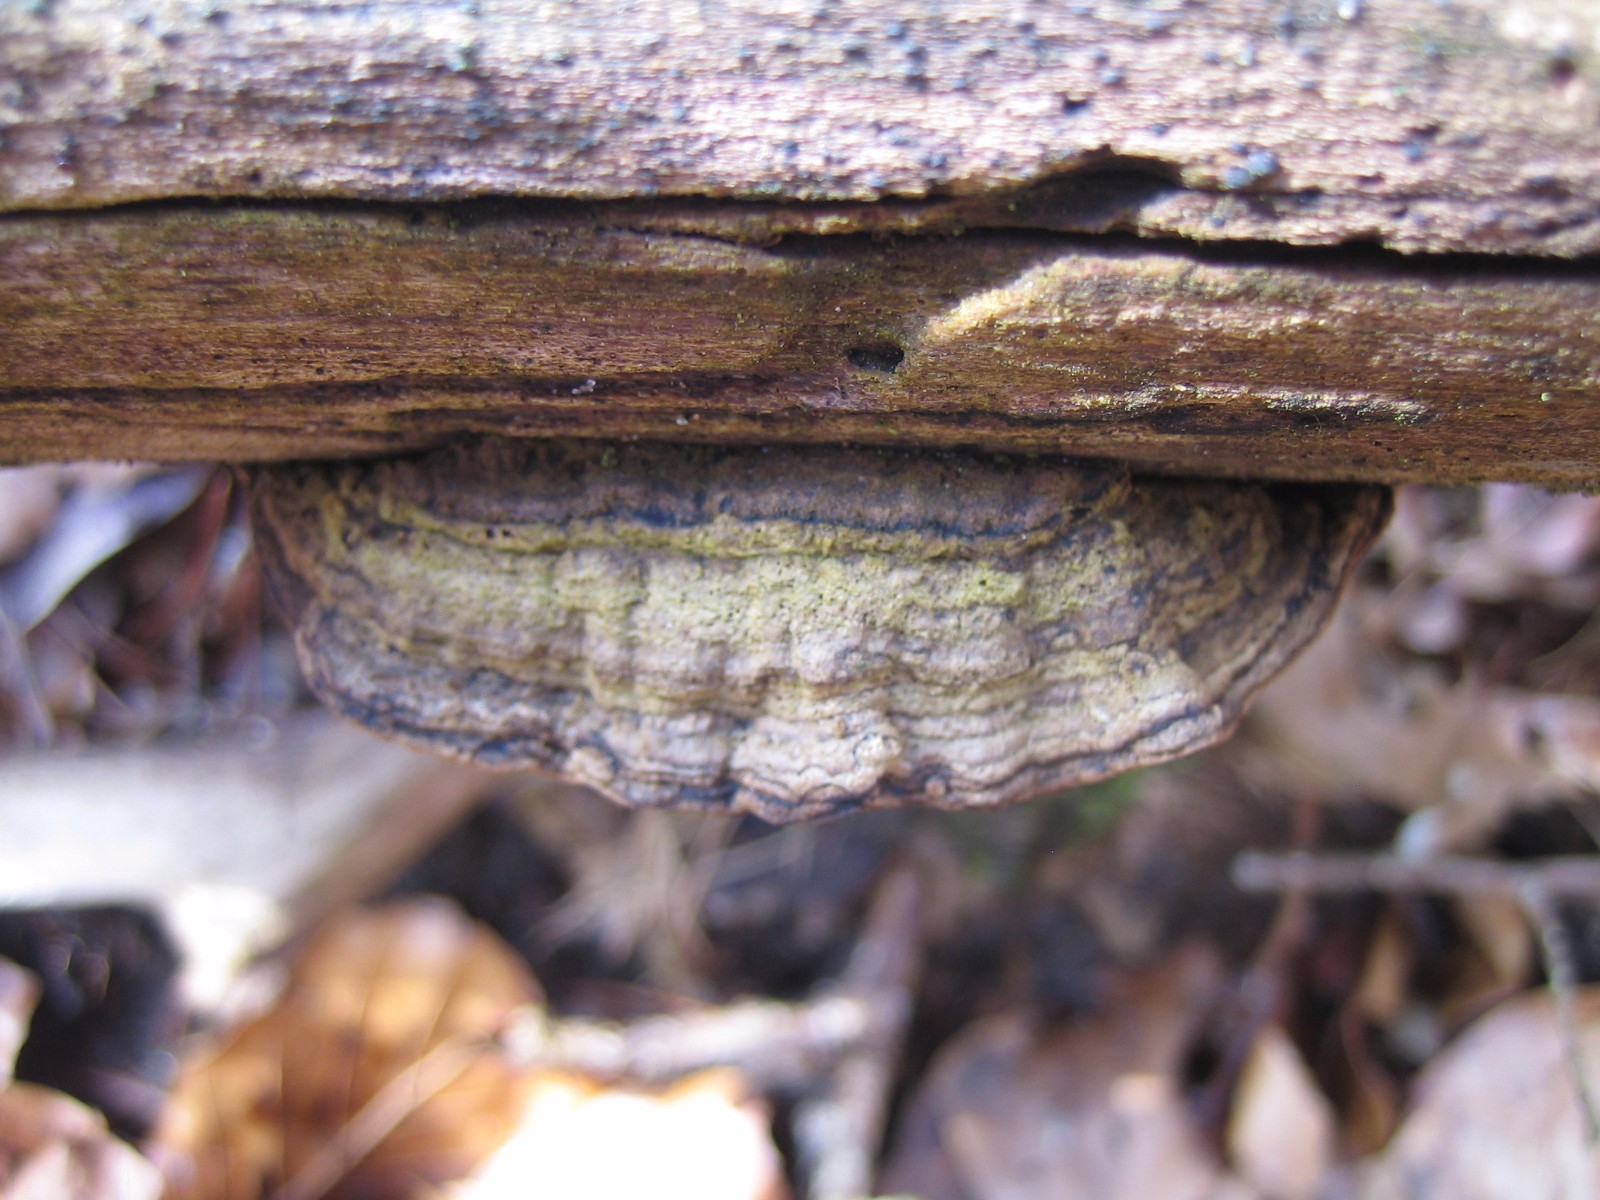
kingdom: Fungi
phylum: Basidiomycota
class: Agaricomycetes
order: Polyporales
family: Polyporaceae
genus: Podofomes
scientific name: Podofomes mollis
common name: blød begporesvamp
